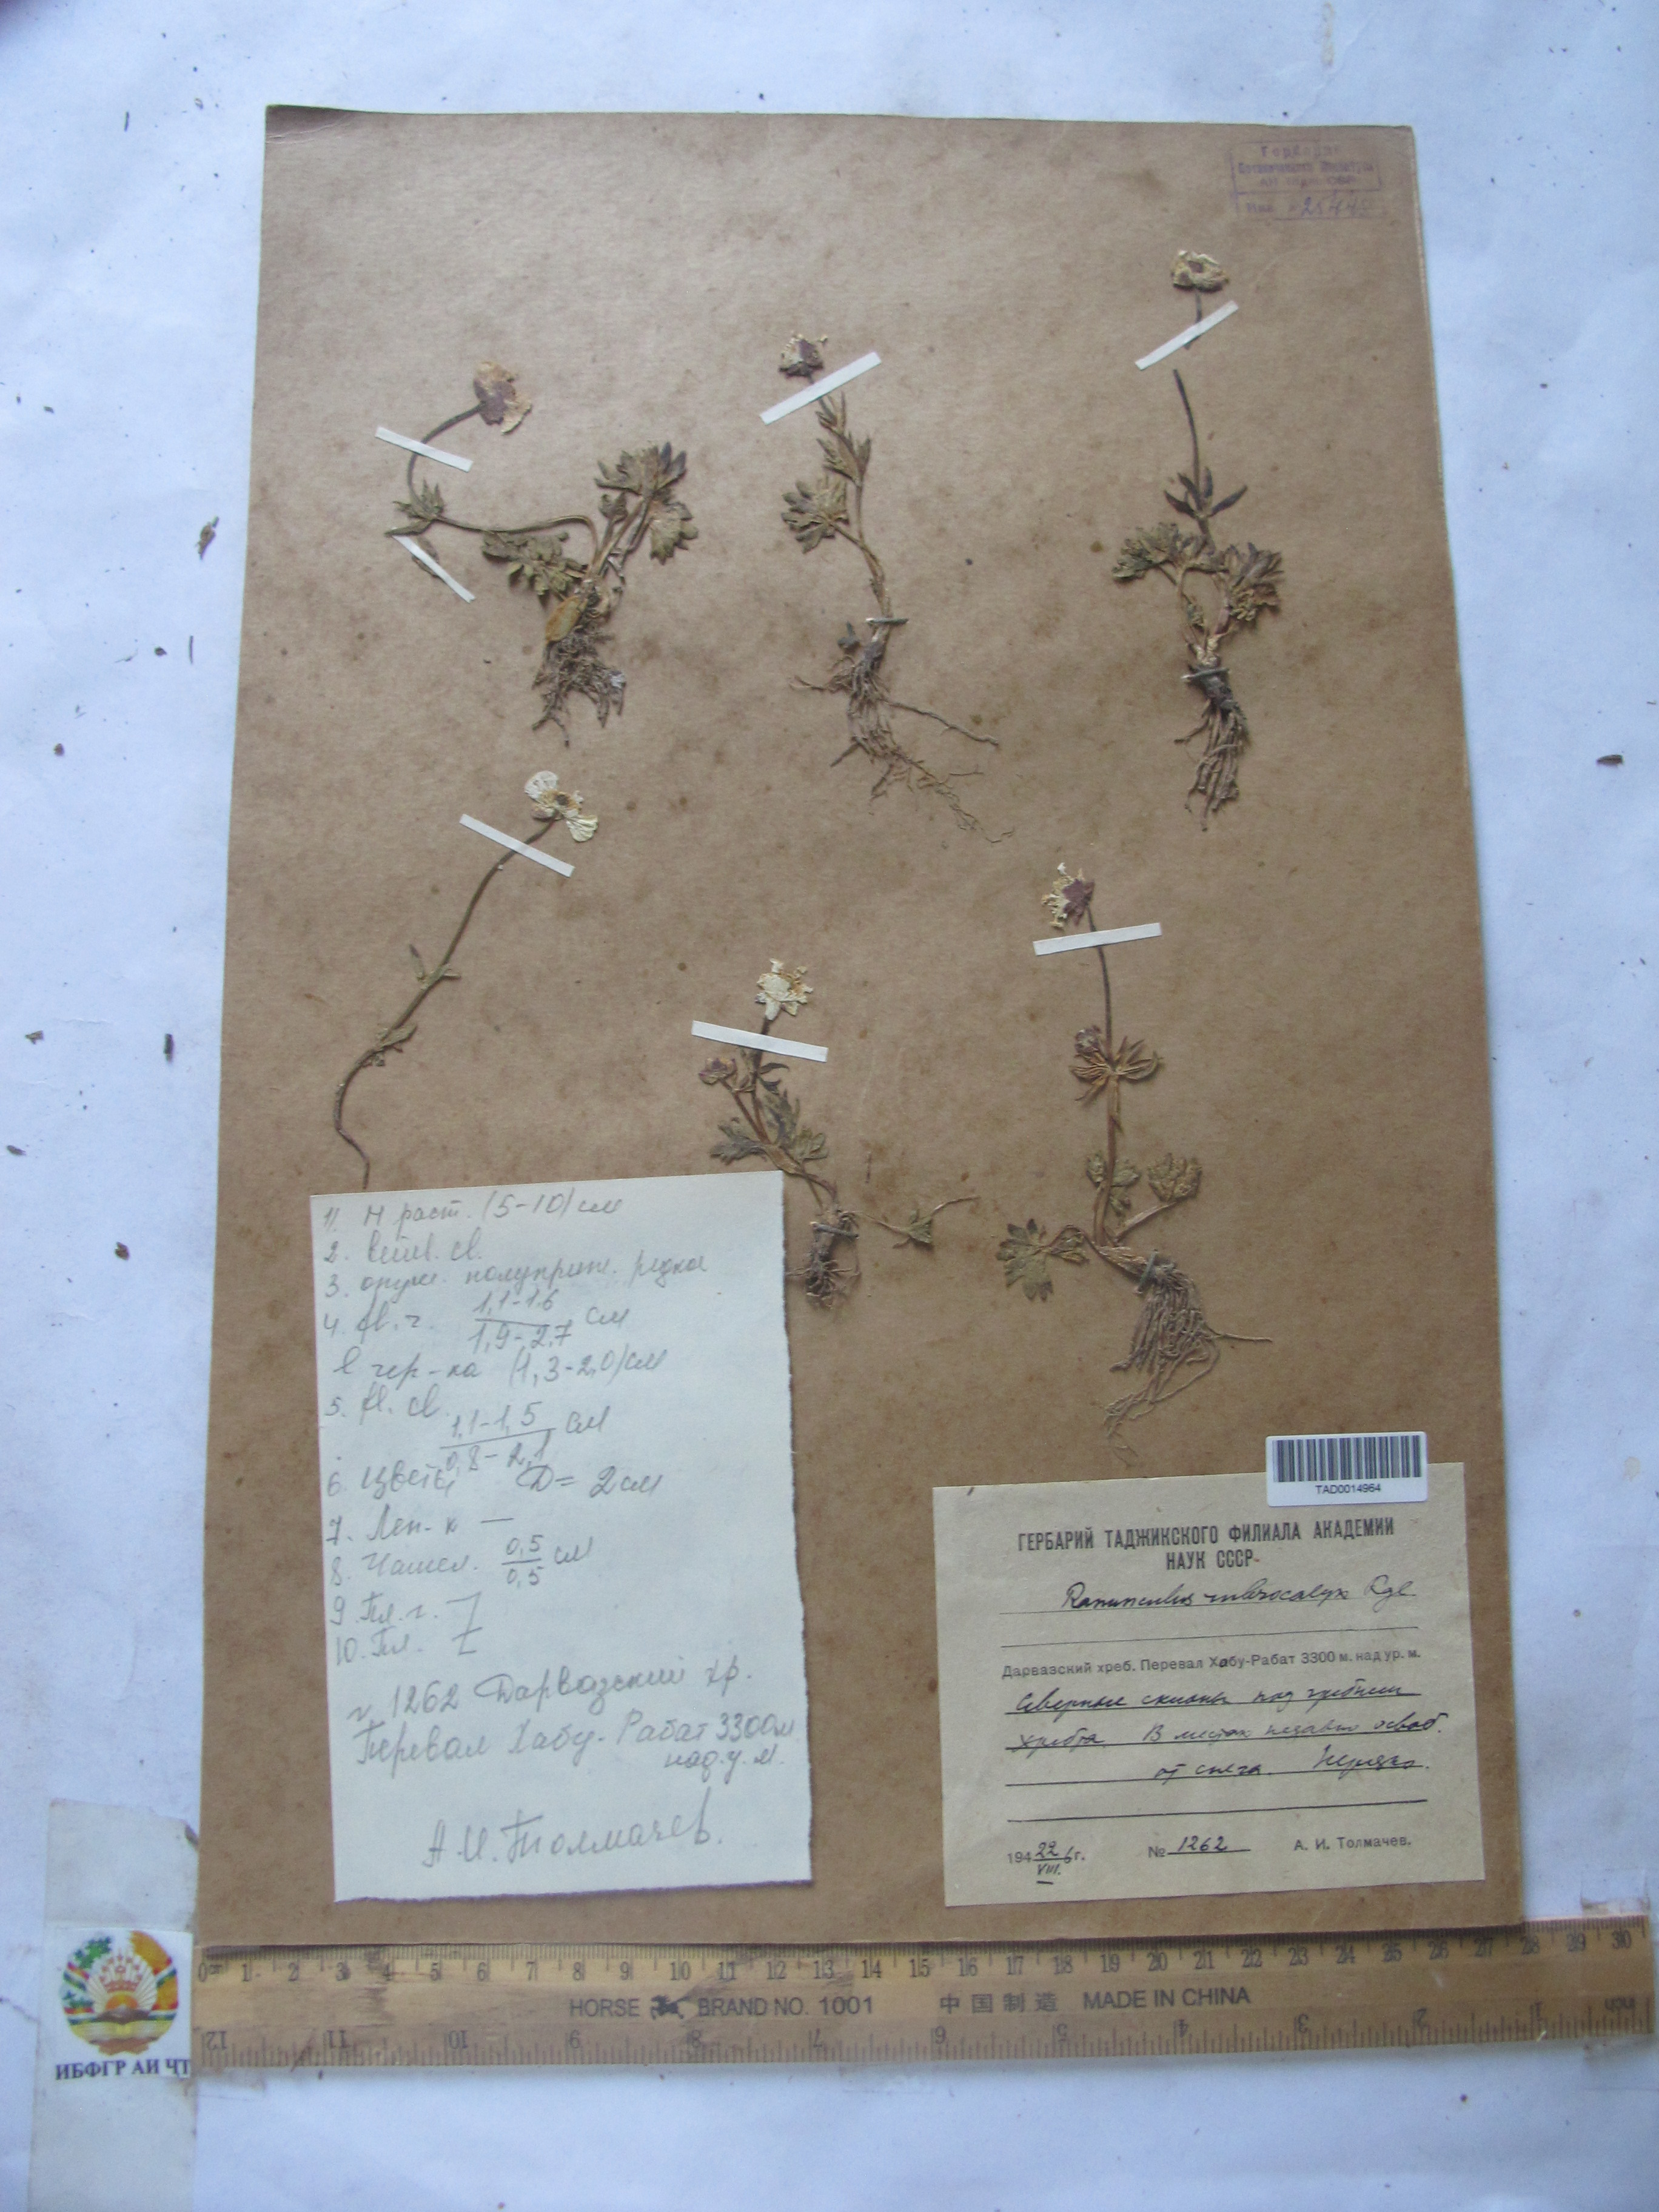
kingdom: Plantae
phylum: Tracheophyta
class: Magnoliopsida
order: Ranunculales
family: Ranunculaceae
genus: Ranunculus
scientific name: Ranunculus rubrocalyx
